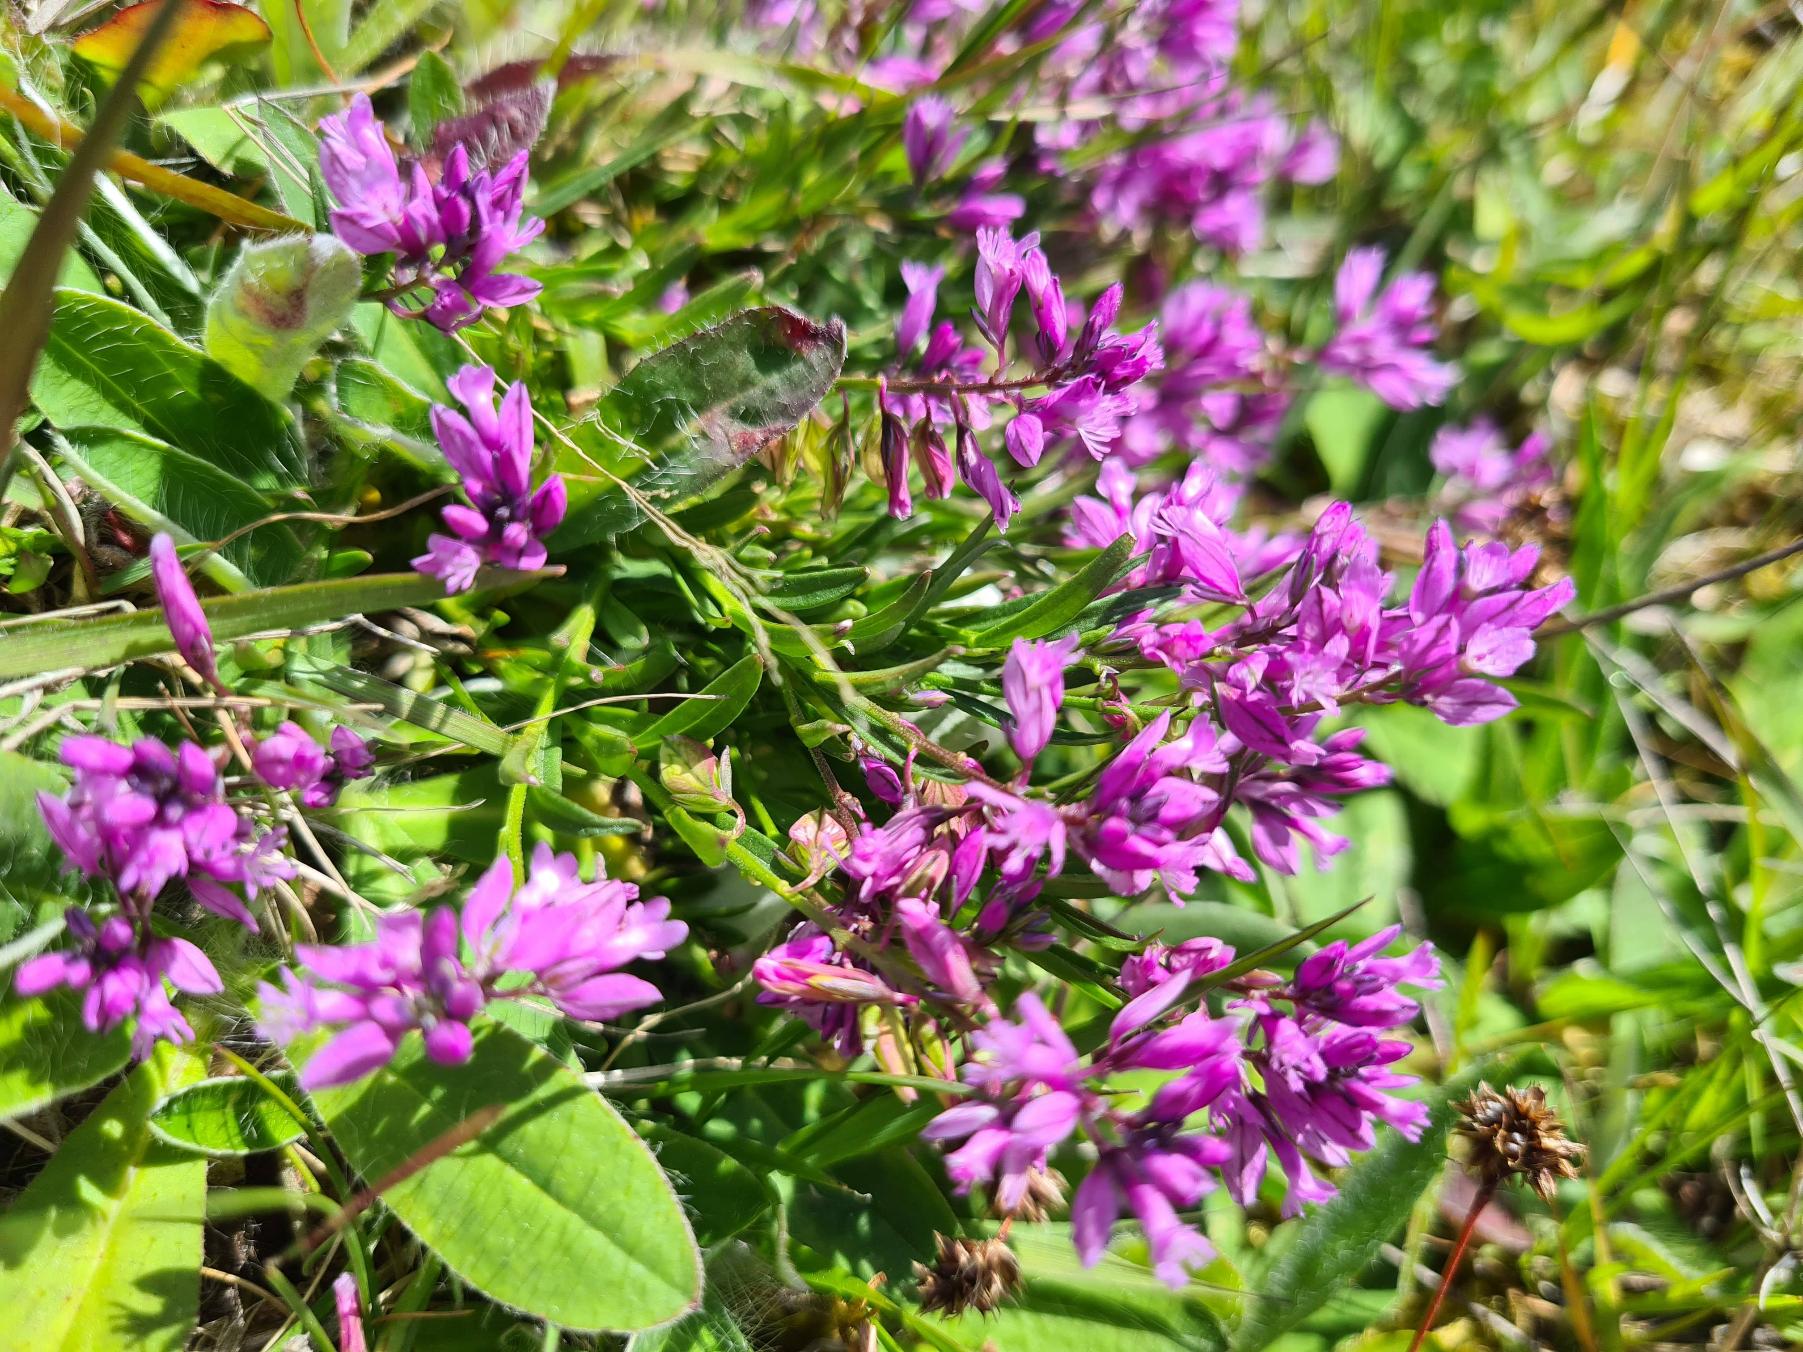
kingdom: Plantae
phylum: Tracheophyta
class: Magnoliopsida
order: Fabales
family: Polygalaceae
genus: Polygala
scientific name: Polygala vulgaris
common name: Almindelig mælkeurt
